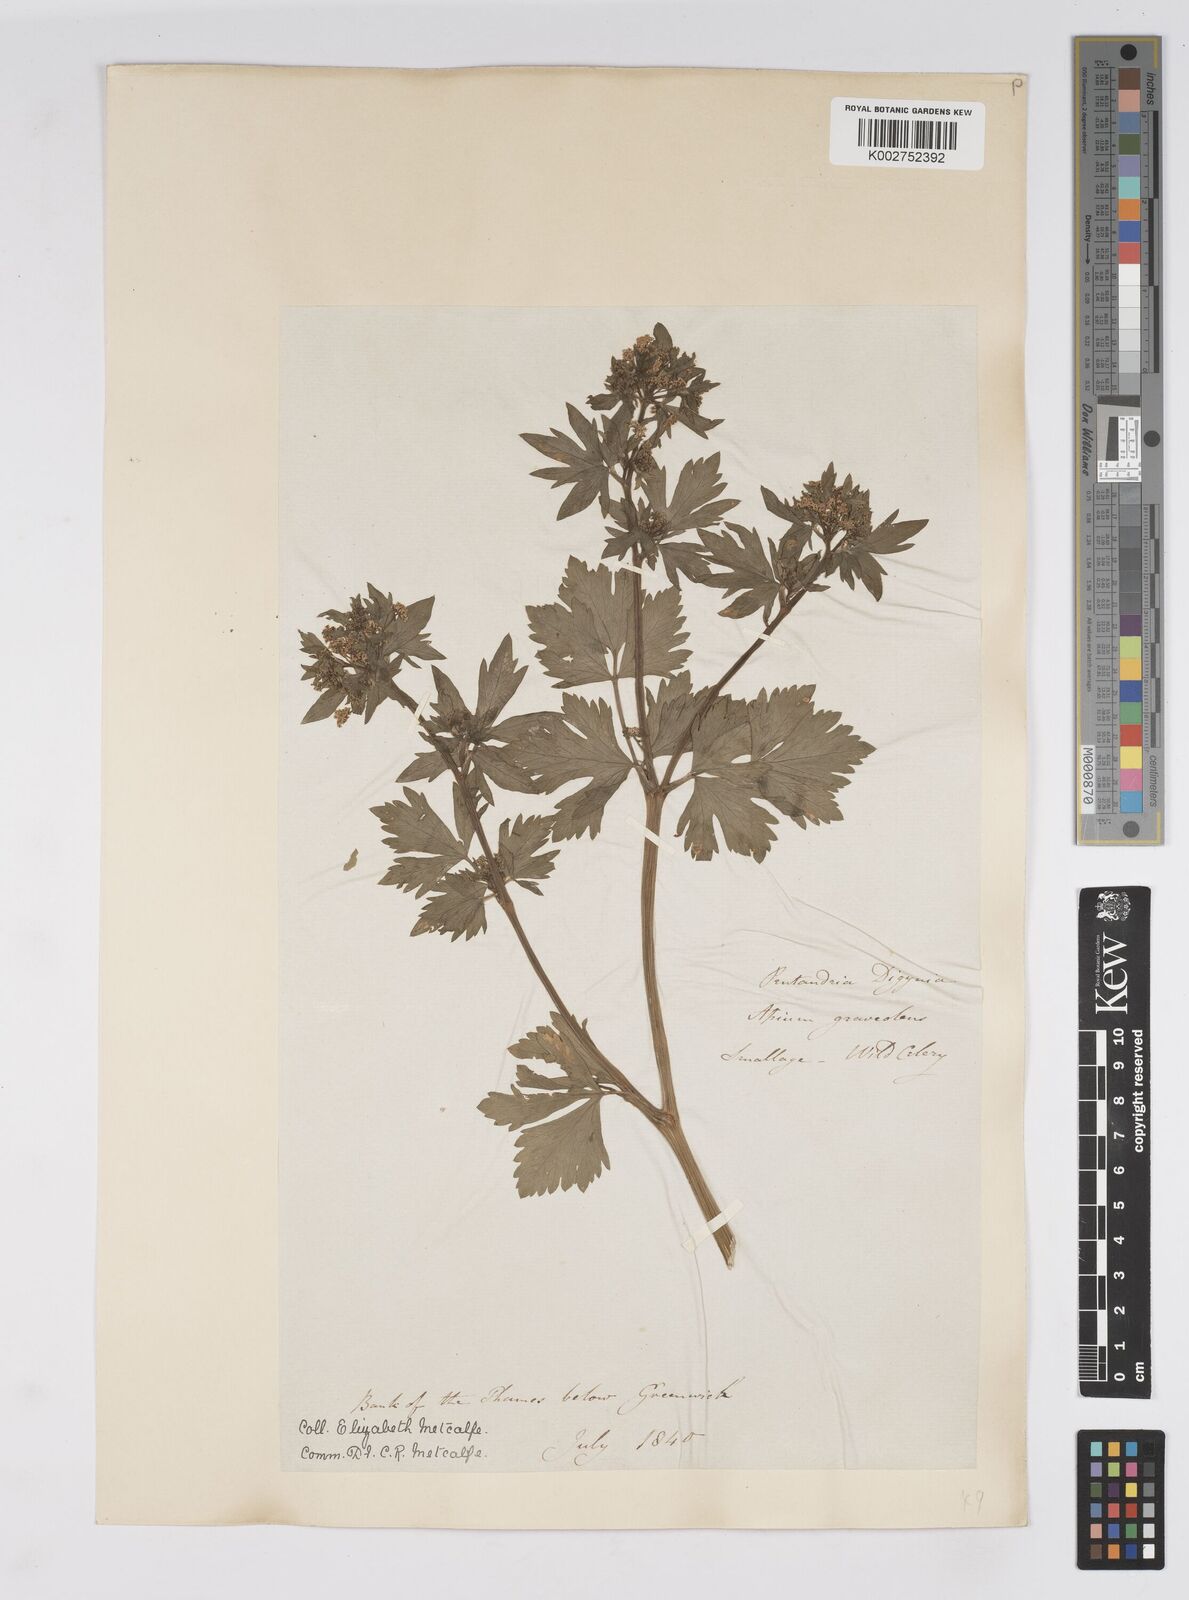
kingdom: Plantae
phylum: Tracheophyta
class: Magnoliopsida
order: Apiales
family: Apiaceae
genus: Apium
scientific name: Apium graveolens
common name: Wild celery
